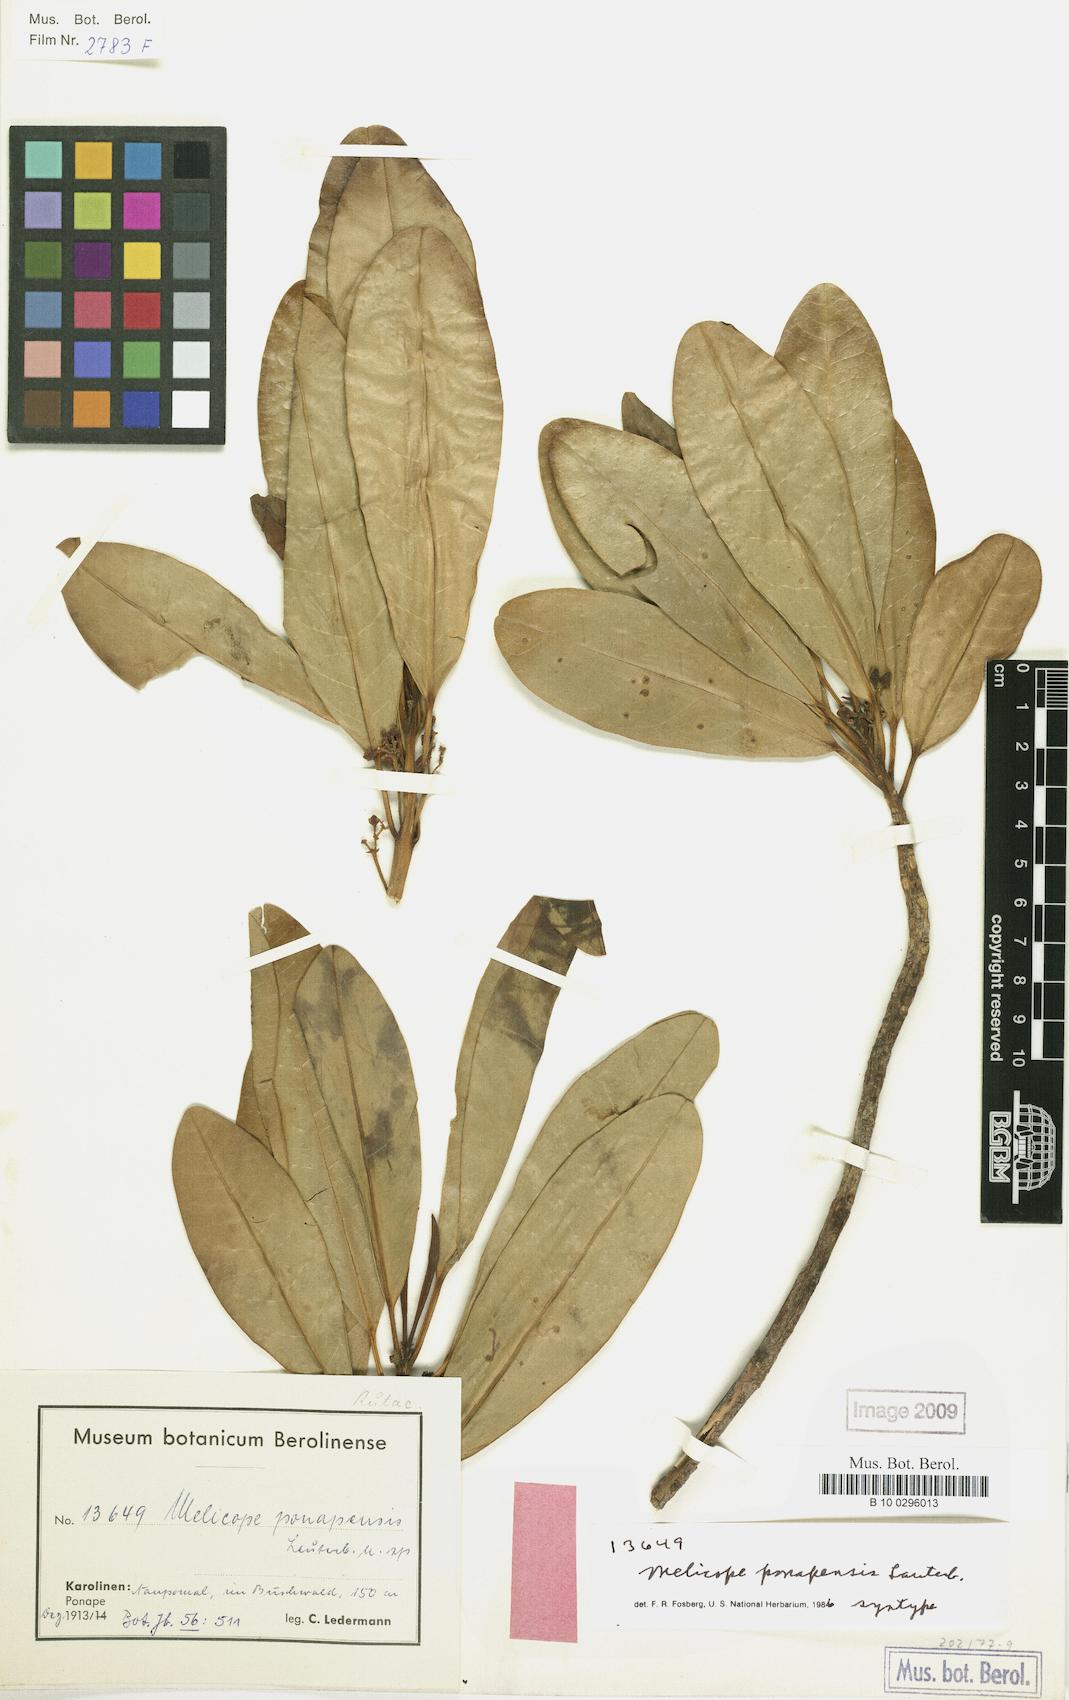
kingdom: Plantae
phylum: Tracheophyta
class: Magnoliopsida
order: Sapindales
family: Rutaceae
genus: Melicope
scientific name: Melicope ponapensis
